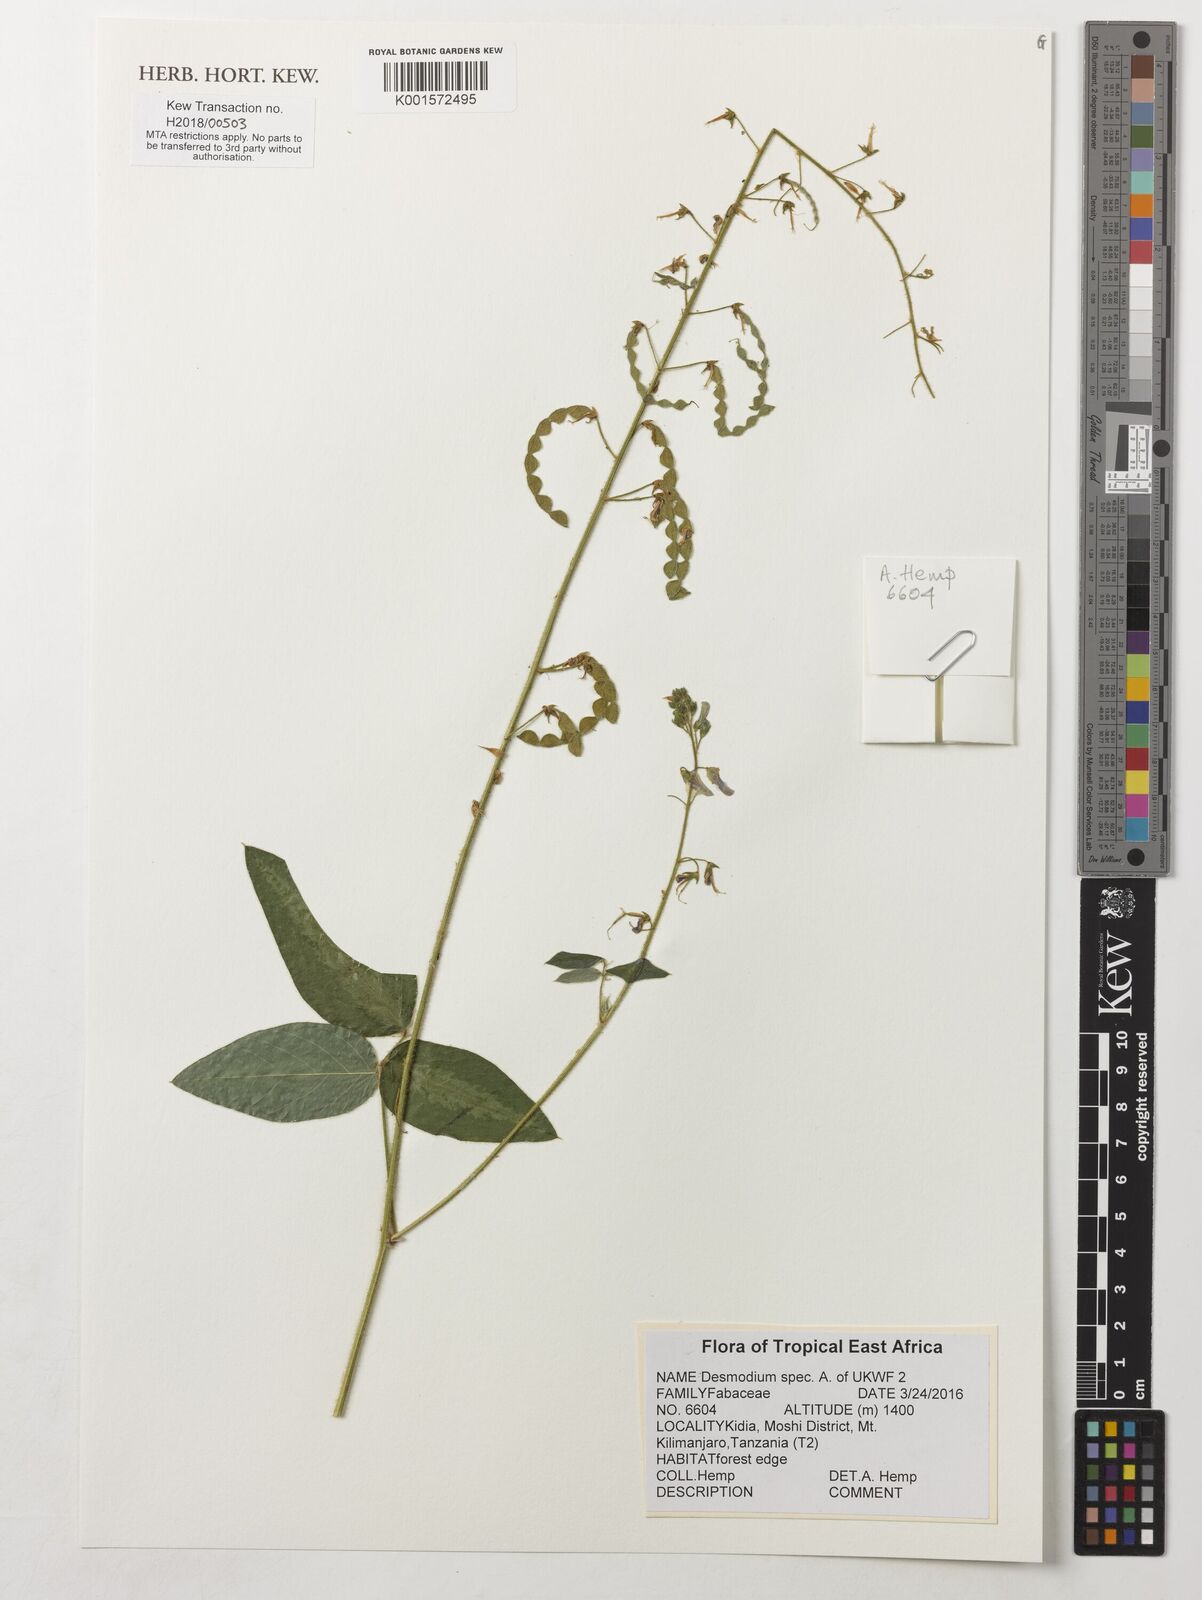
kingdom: Plantae
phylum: Tracheophyta
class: Magnoliopsida
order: Fabales
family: Fabaceae
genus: Desmodium
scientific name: Desmodium
